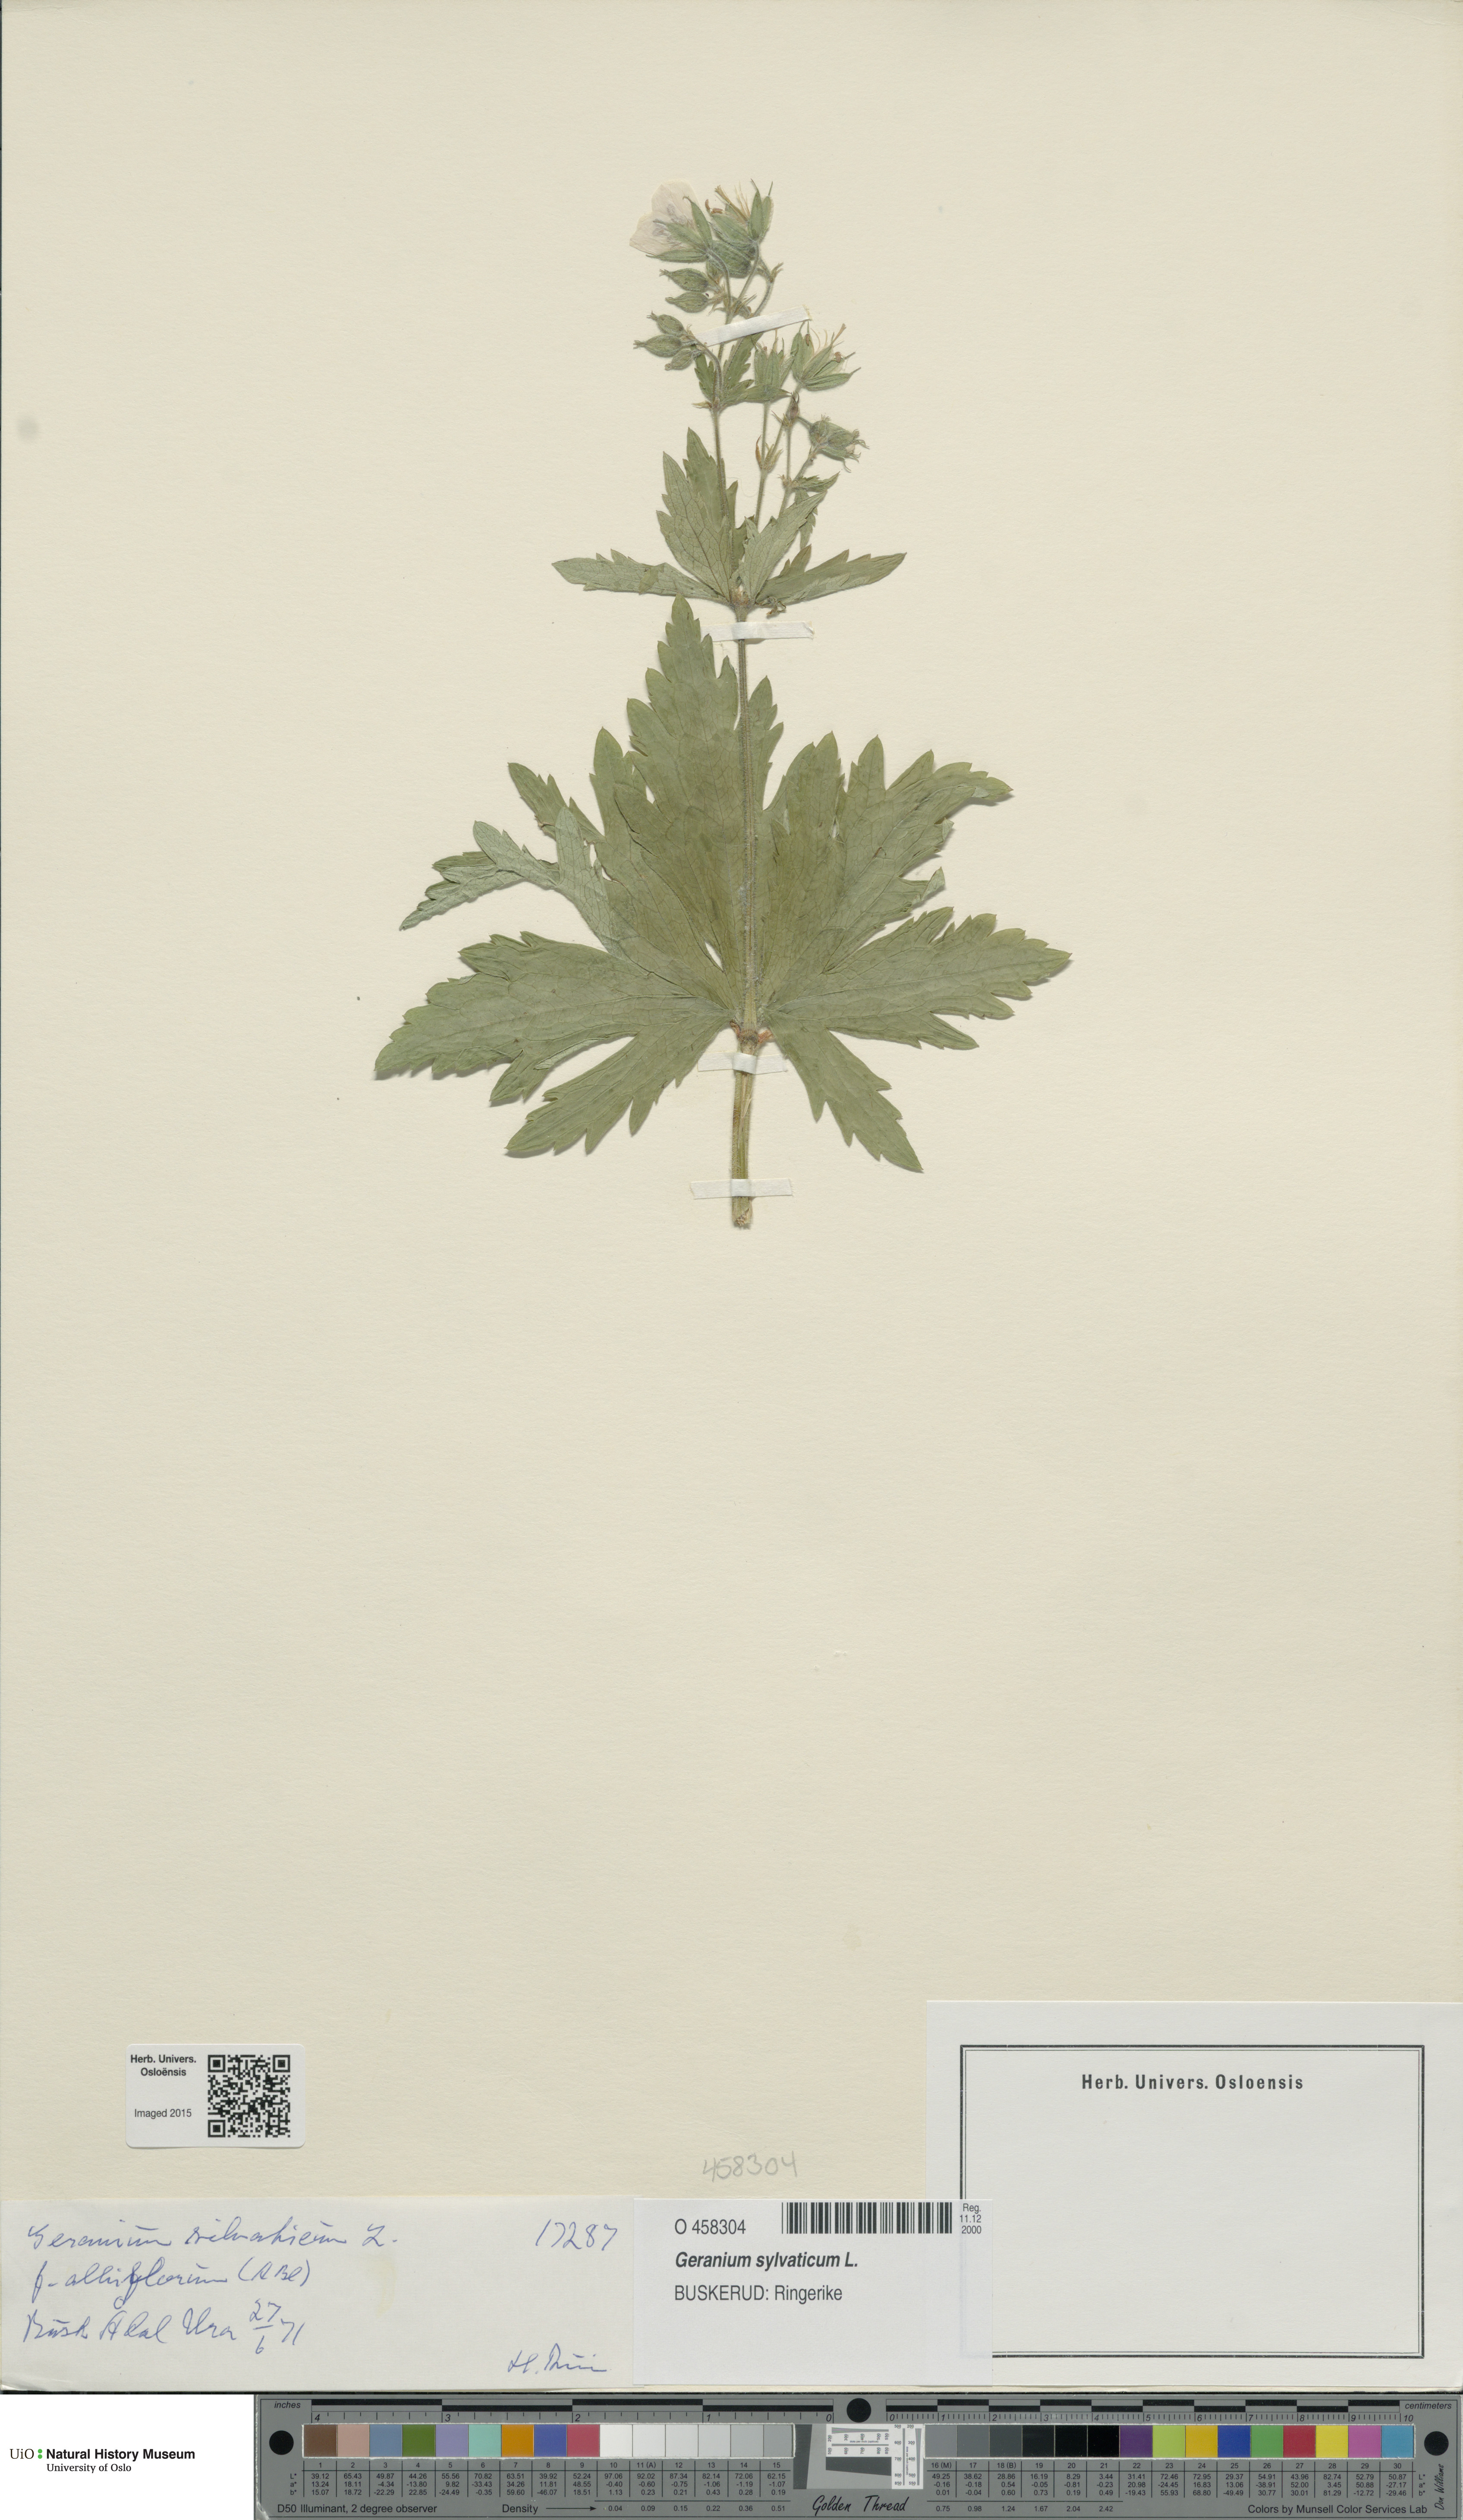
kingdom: Plantae
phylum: Tracheophyta
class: Magnoliopsida
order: Geraniales
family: Geraniaceae
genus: Geranium
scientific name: Geranium sylvaticum
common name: Wood crane's-bill
